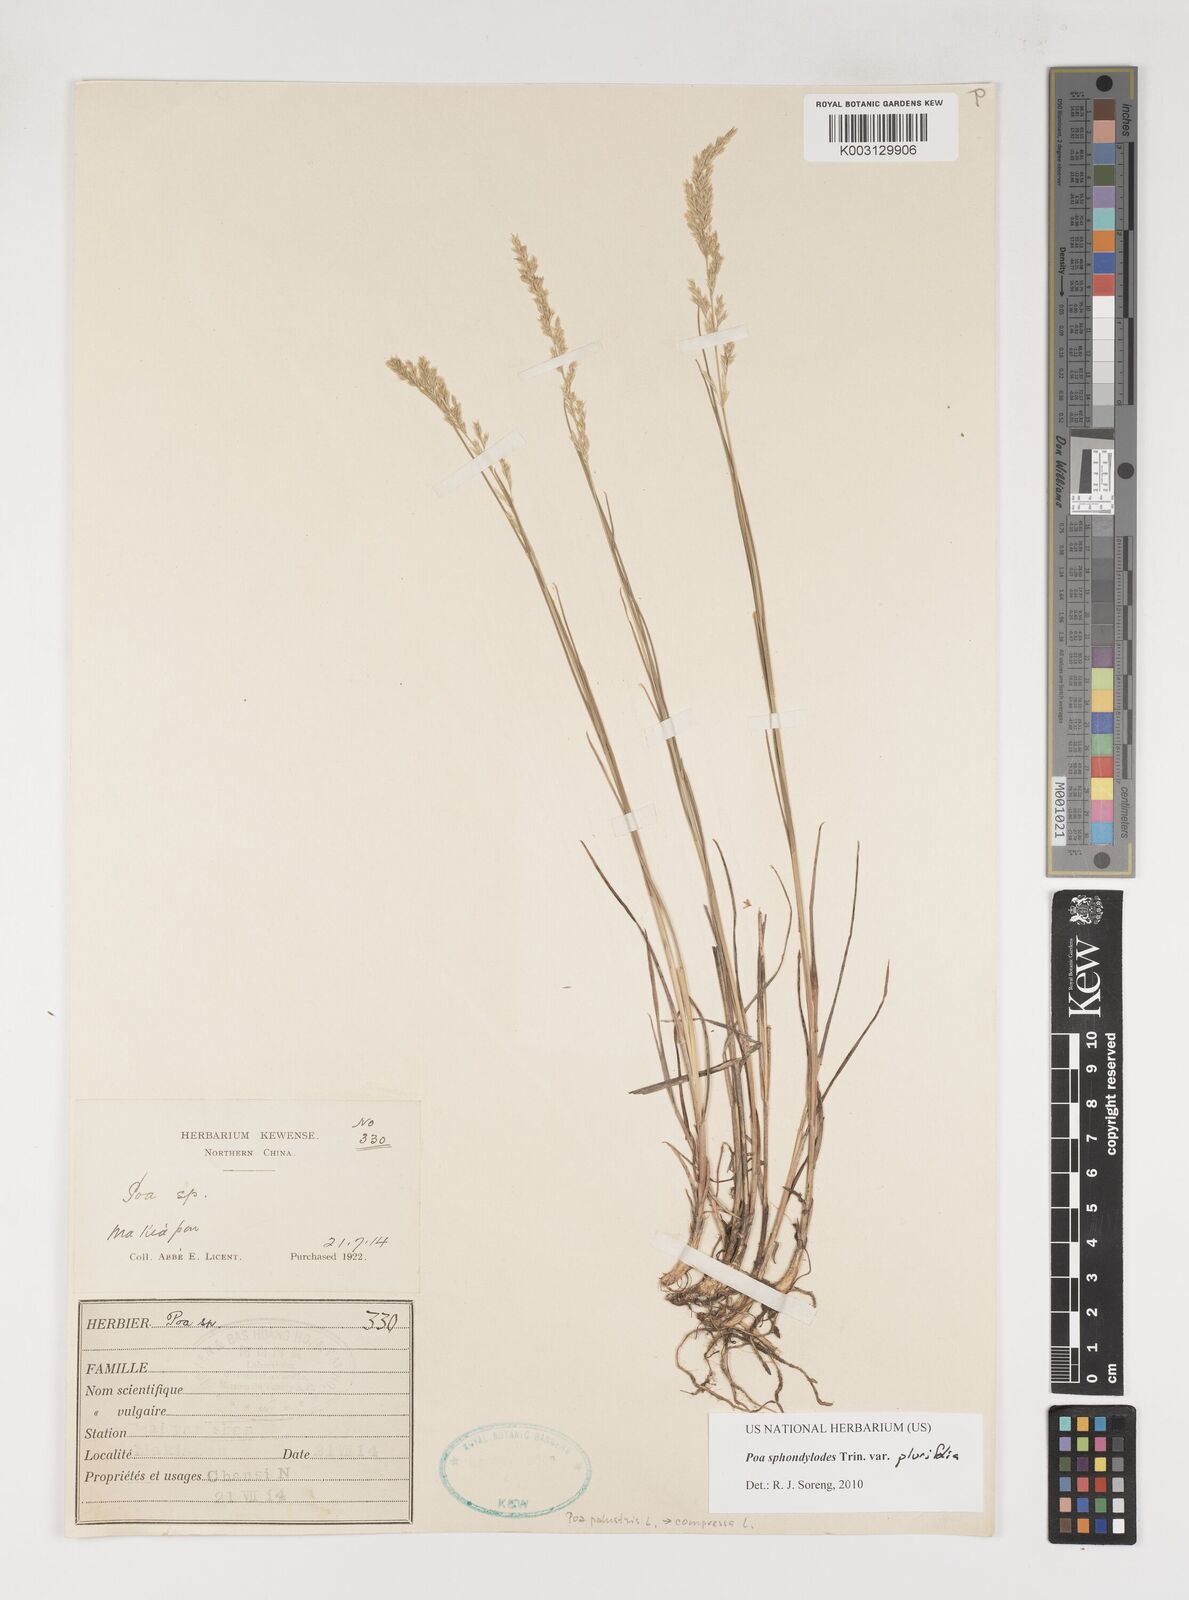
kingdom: Plantae
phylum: Tracheophyta
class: Liliopsida
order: Poales
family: Poaceae
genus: Poa
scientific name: Poa sphondylodes
